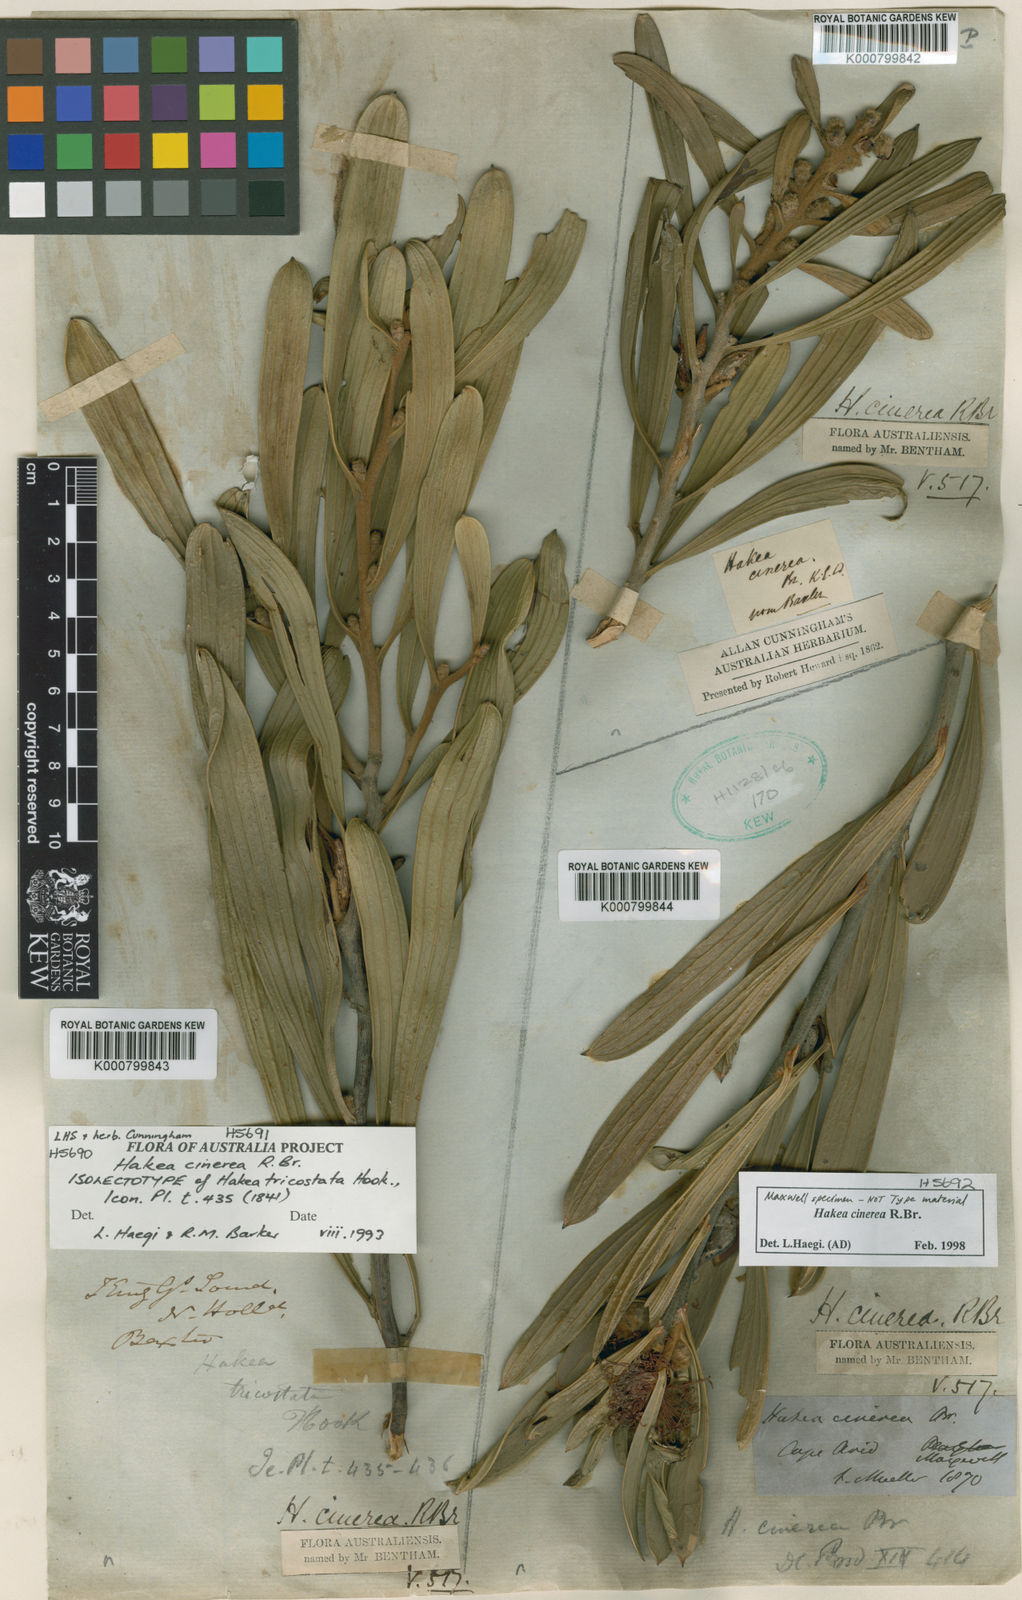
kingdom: Plantae
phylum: Tracheophyta
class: Magnoliopsida
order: Proteales
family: Proteaceae
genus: Hakea
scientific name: Hakea cinerea
